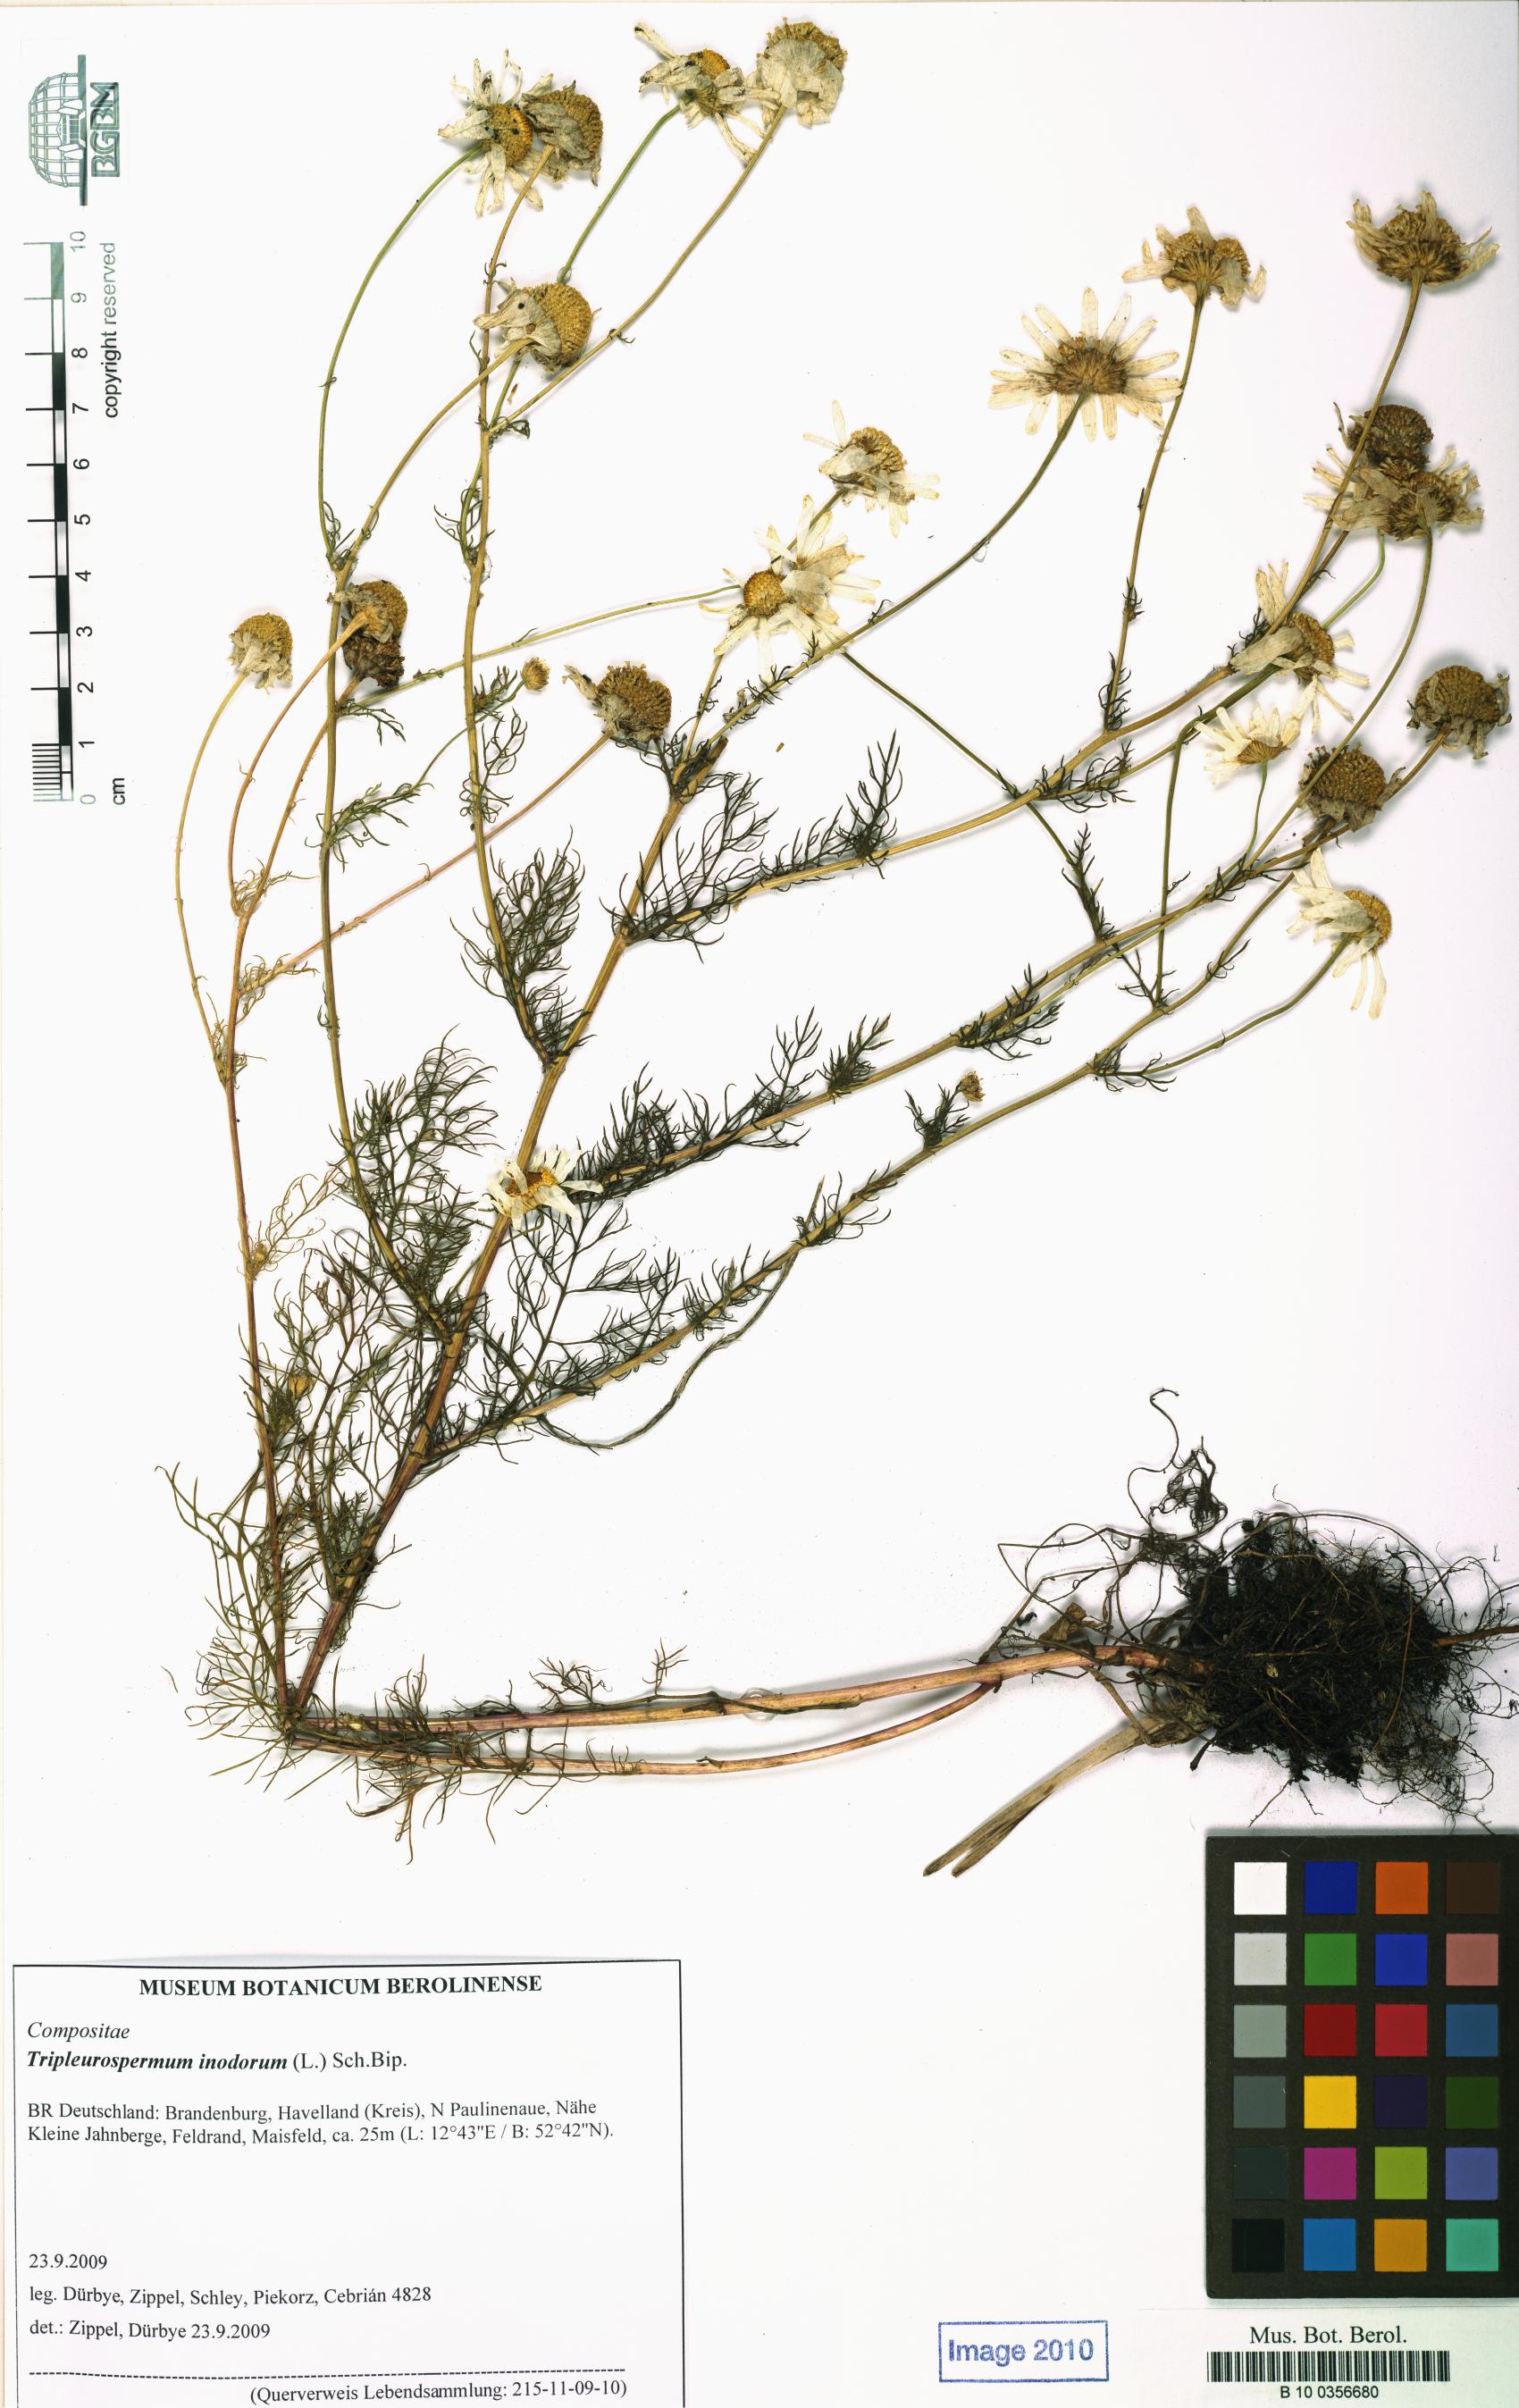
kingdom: Plantae
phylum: Tracheophyta
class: Magnoliopsida
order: Asterales
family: Asteraceae
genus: Tripleurospermum
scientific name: Tripleurospermum inodorum
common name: Scentless mayweed
